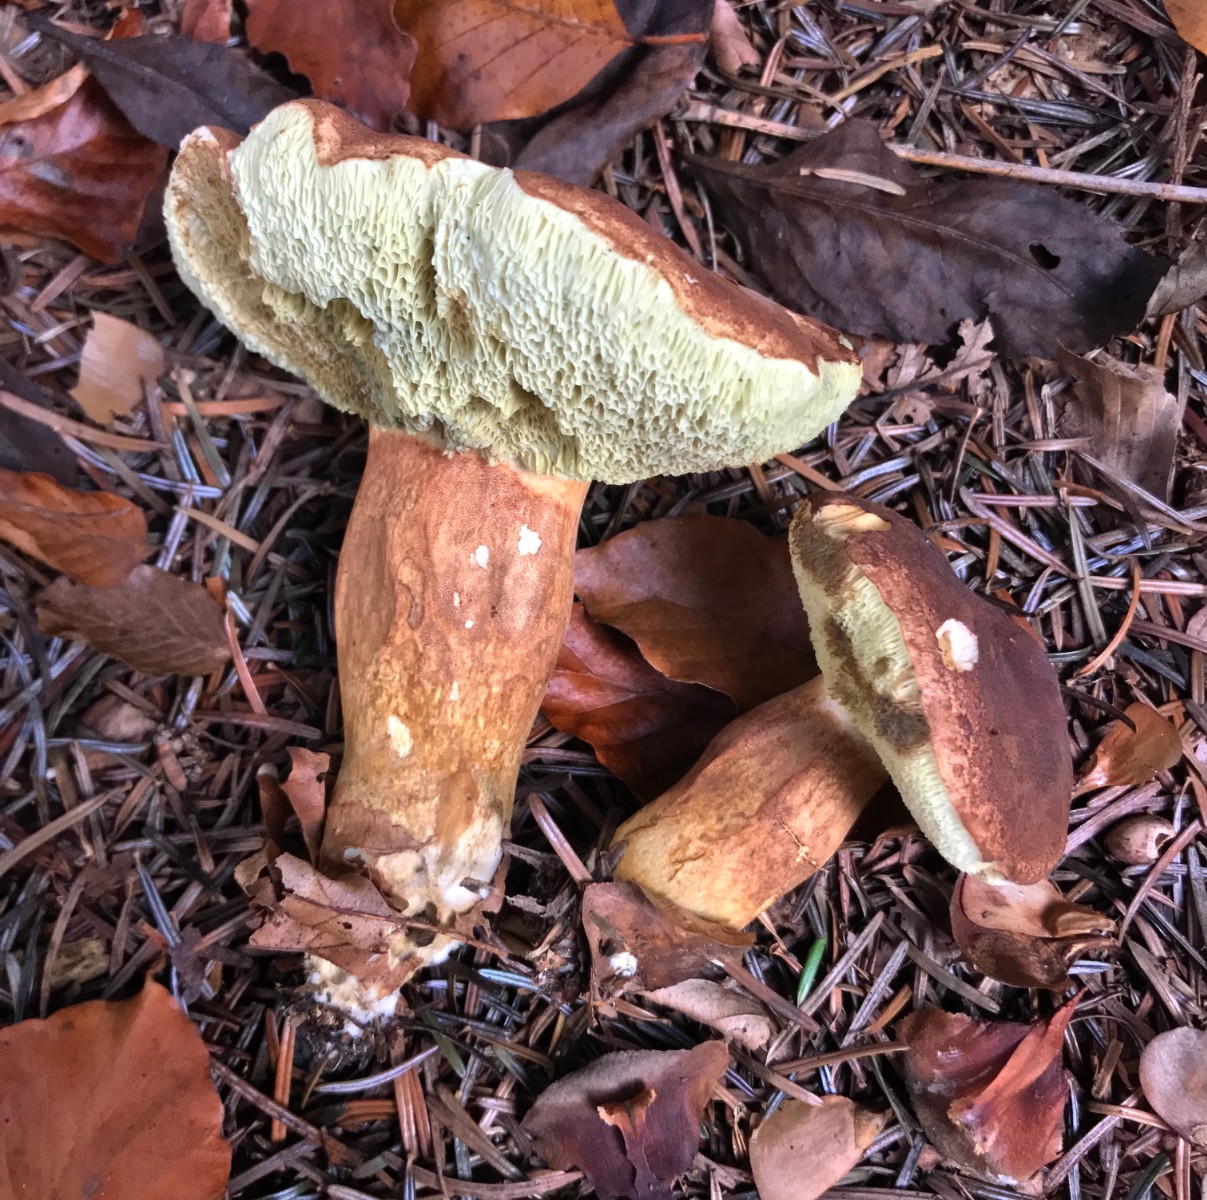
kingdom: Fungi
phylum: Basidiomycota
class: Agaricomycetes
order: Boletales
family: Boletaceae
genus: Imleria
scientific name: Imleria badia
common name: brunstokket rørhat
